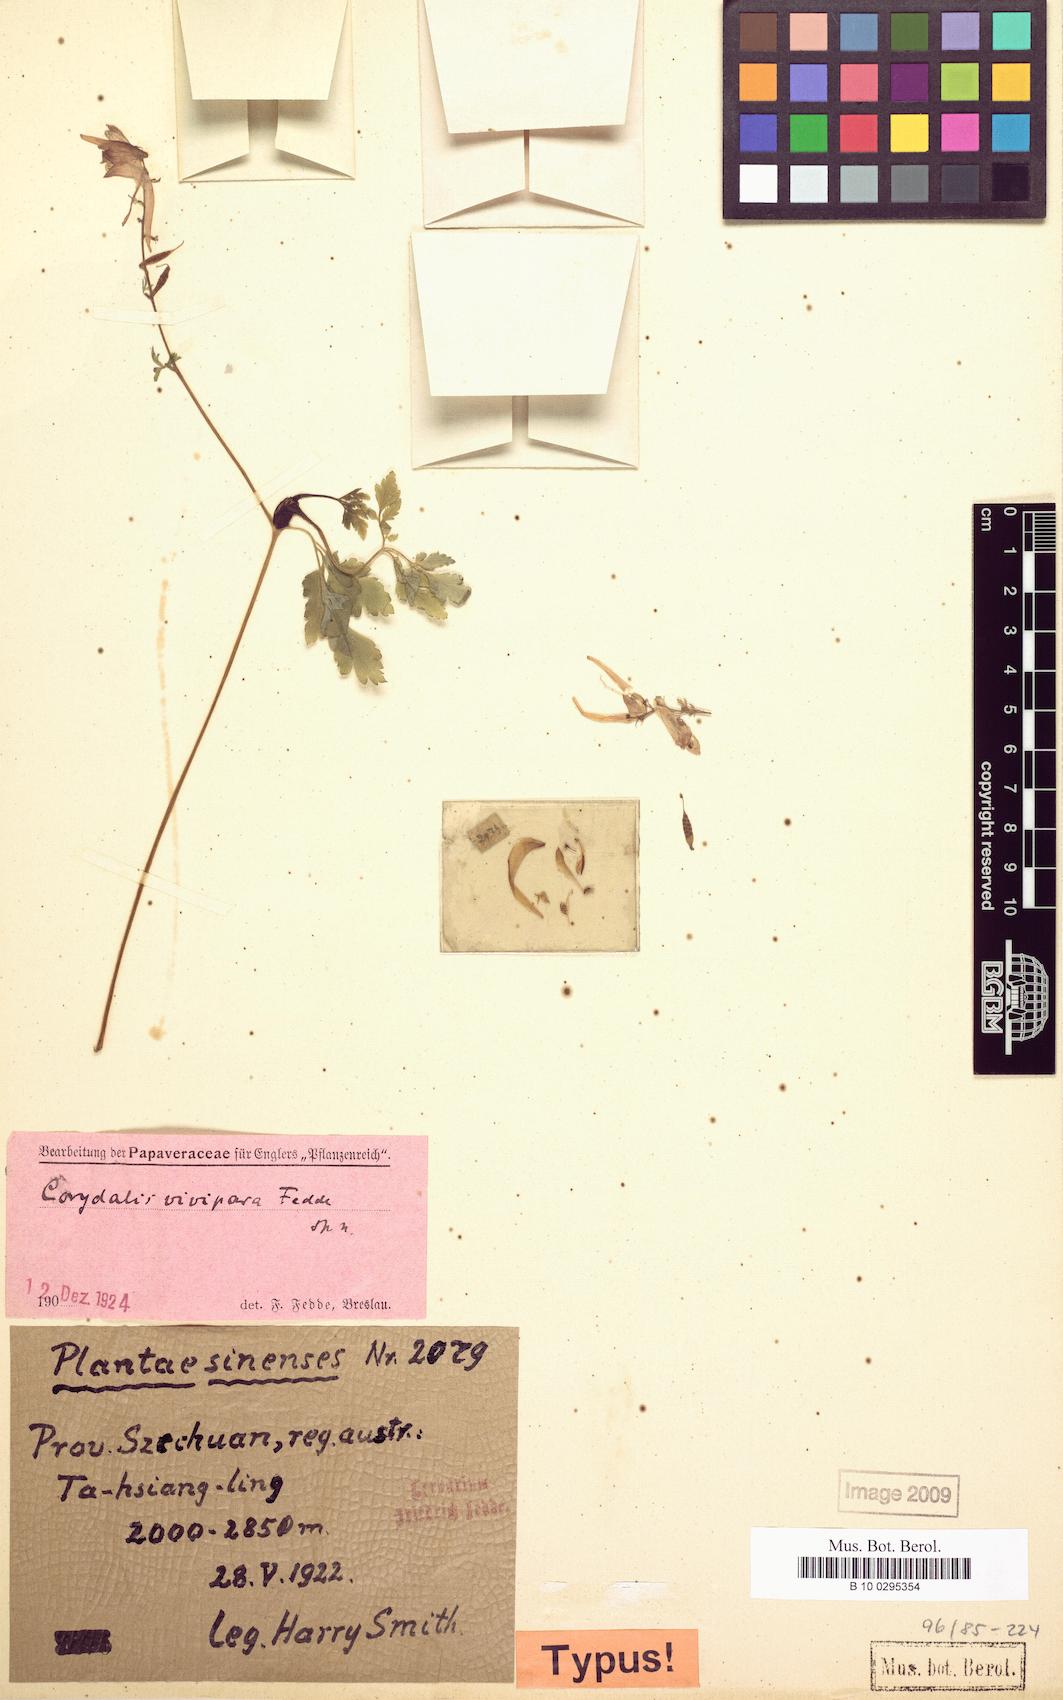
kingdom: Plantae
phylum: Tracheophyta
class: Magnoliopsida
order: Ranunculales
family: Papaveraceae
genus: Corydalis
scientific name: Corydalis vivipara
